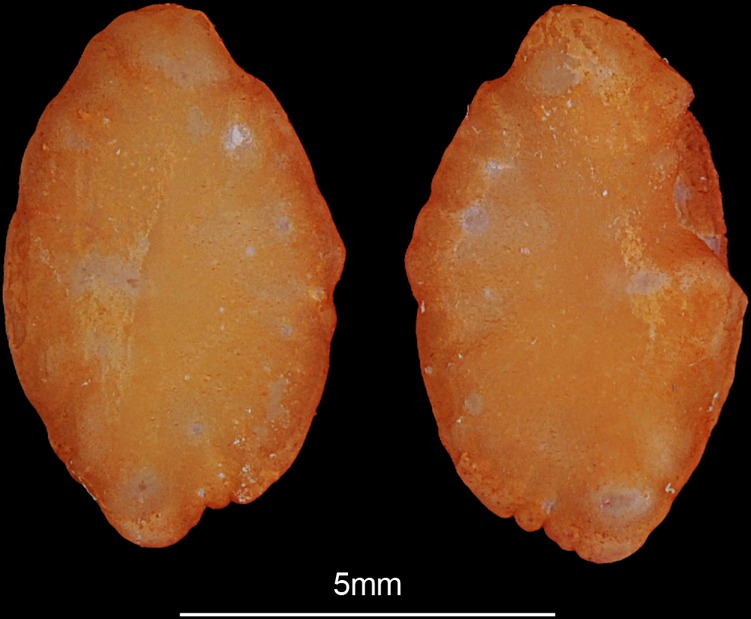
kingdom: Animalia
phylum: Chordata
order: Perciformes
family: Percidae
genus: Gymnocephalus
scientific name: Gymnocephalus cernua
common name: Ruffe
